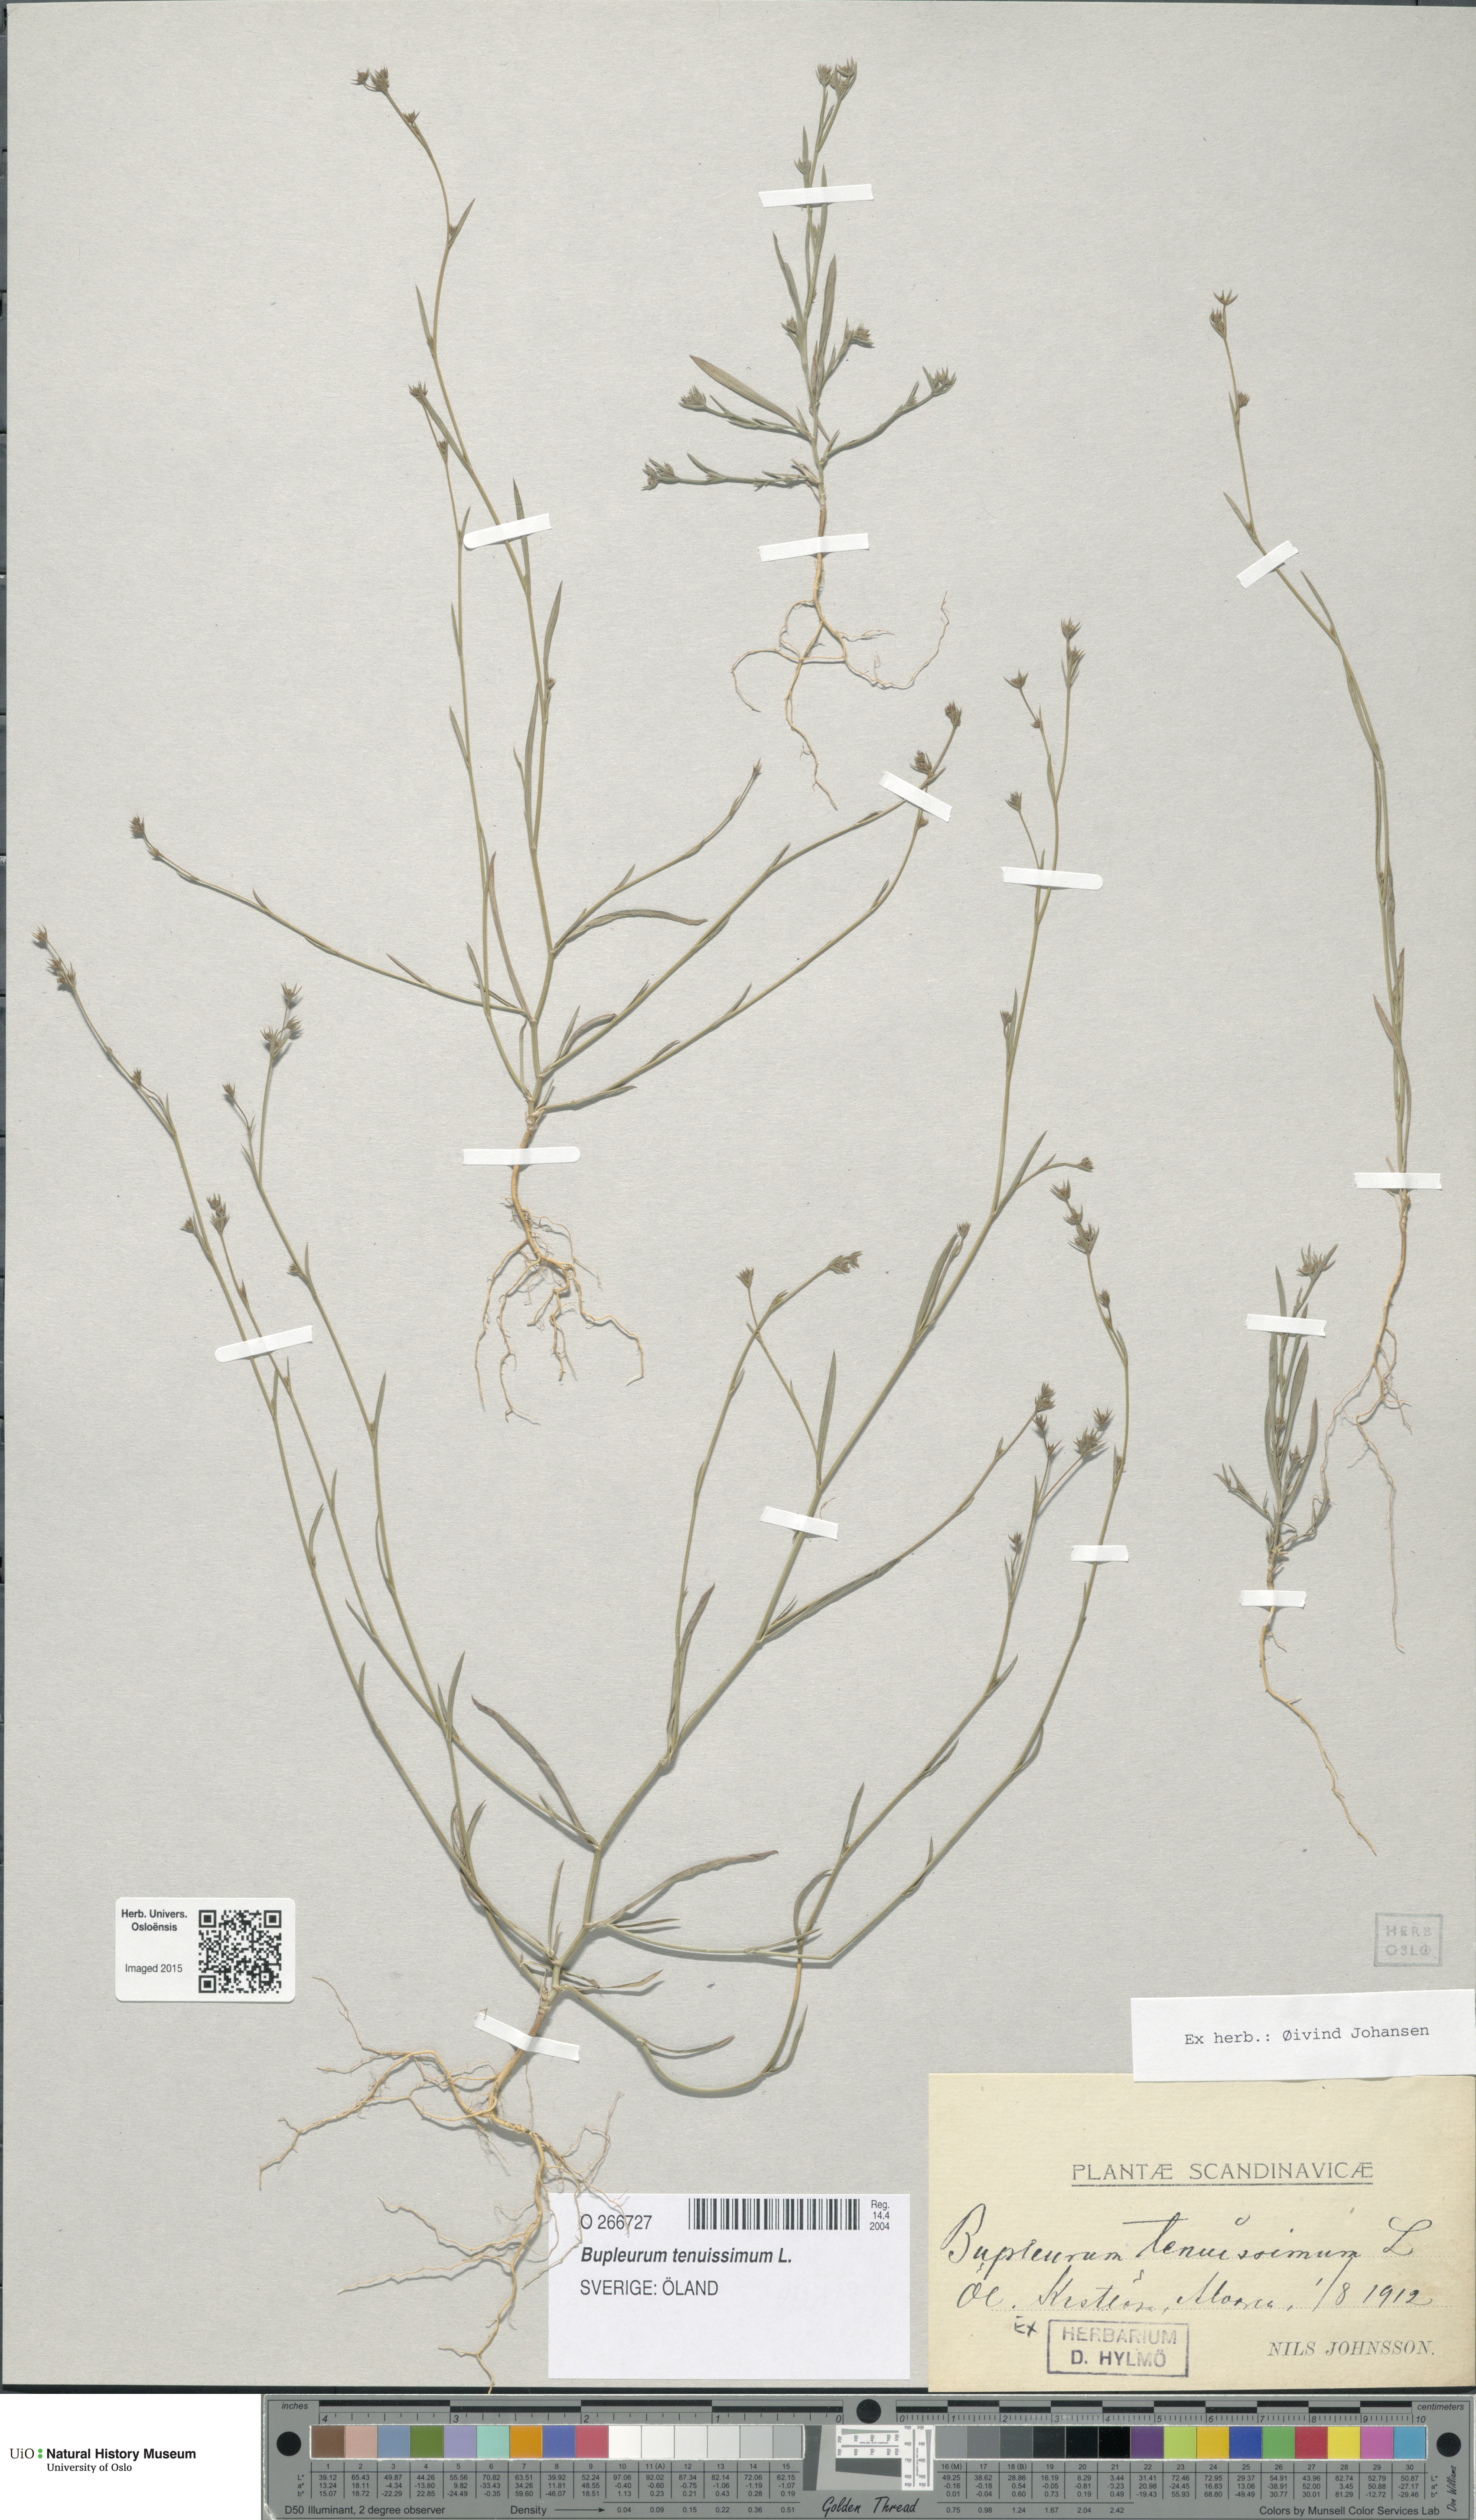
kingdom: Plantae
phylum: Tracheophyta
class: Magnoliopsida
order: Apiales
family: Apiaceae
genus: Bupleurum
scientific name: Bupleurum tenuissimum
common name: Slender hare's-ear
